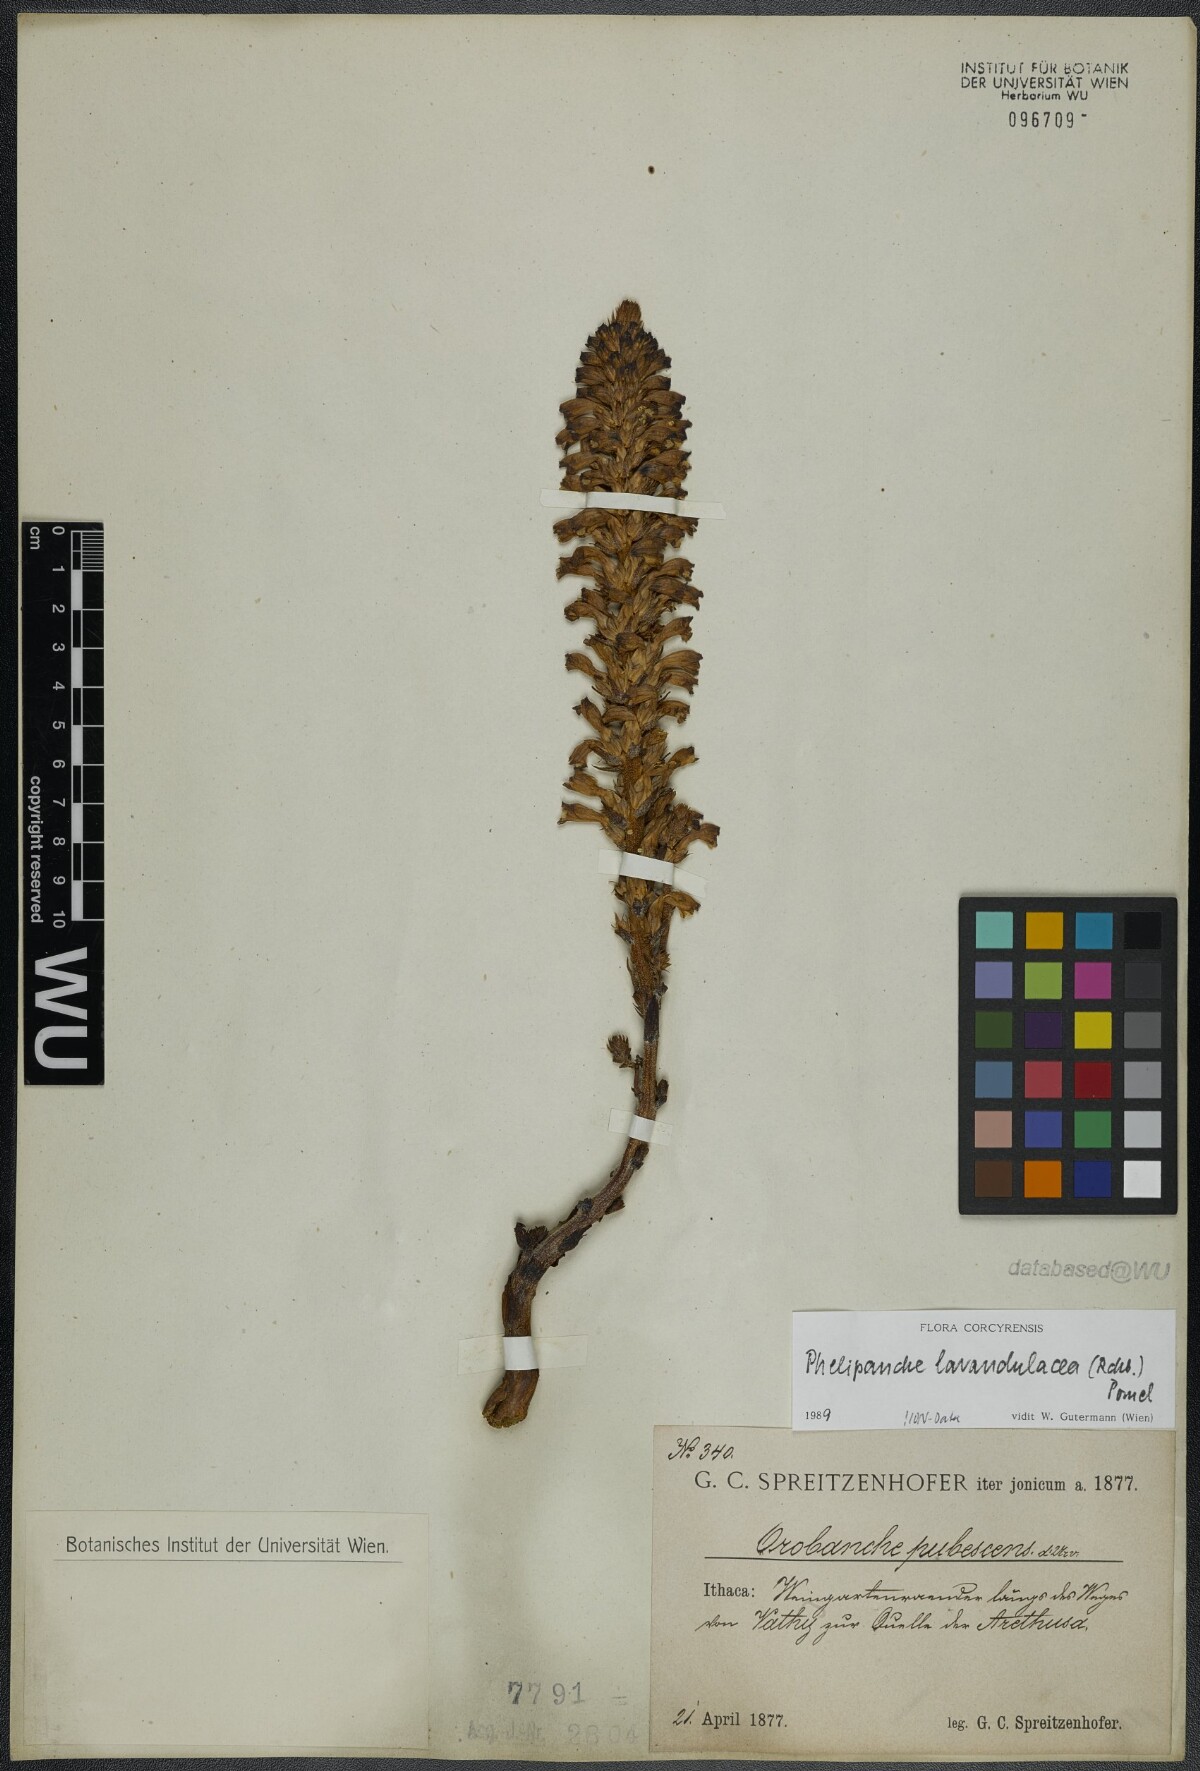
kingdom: Plantae
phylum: Tracheophyta
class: Magnoliopsida
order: Lamiales
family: Orobanchaceae
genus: Phelipanche
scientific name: Phelipanche lavandulacea
